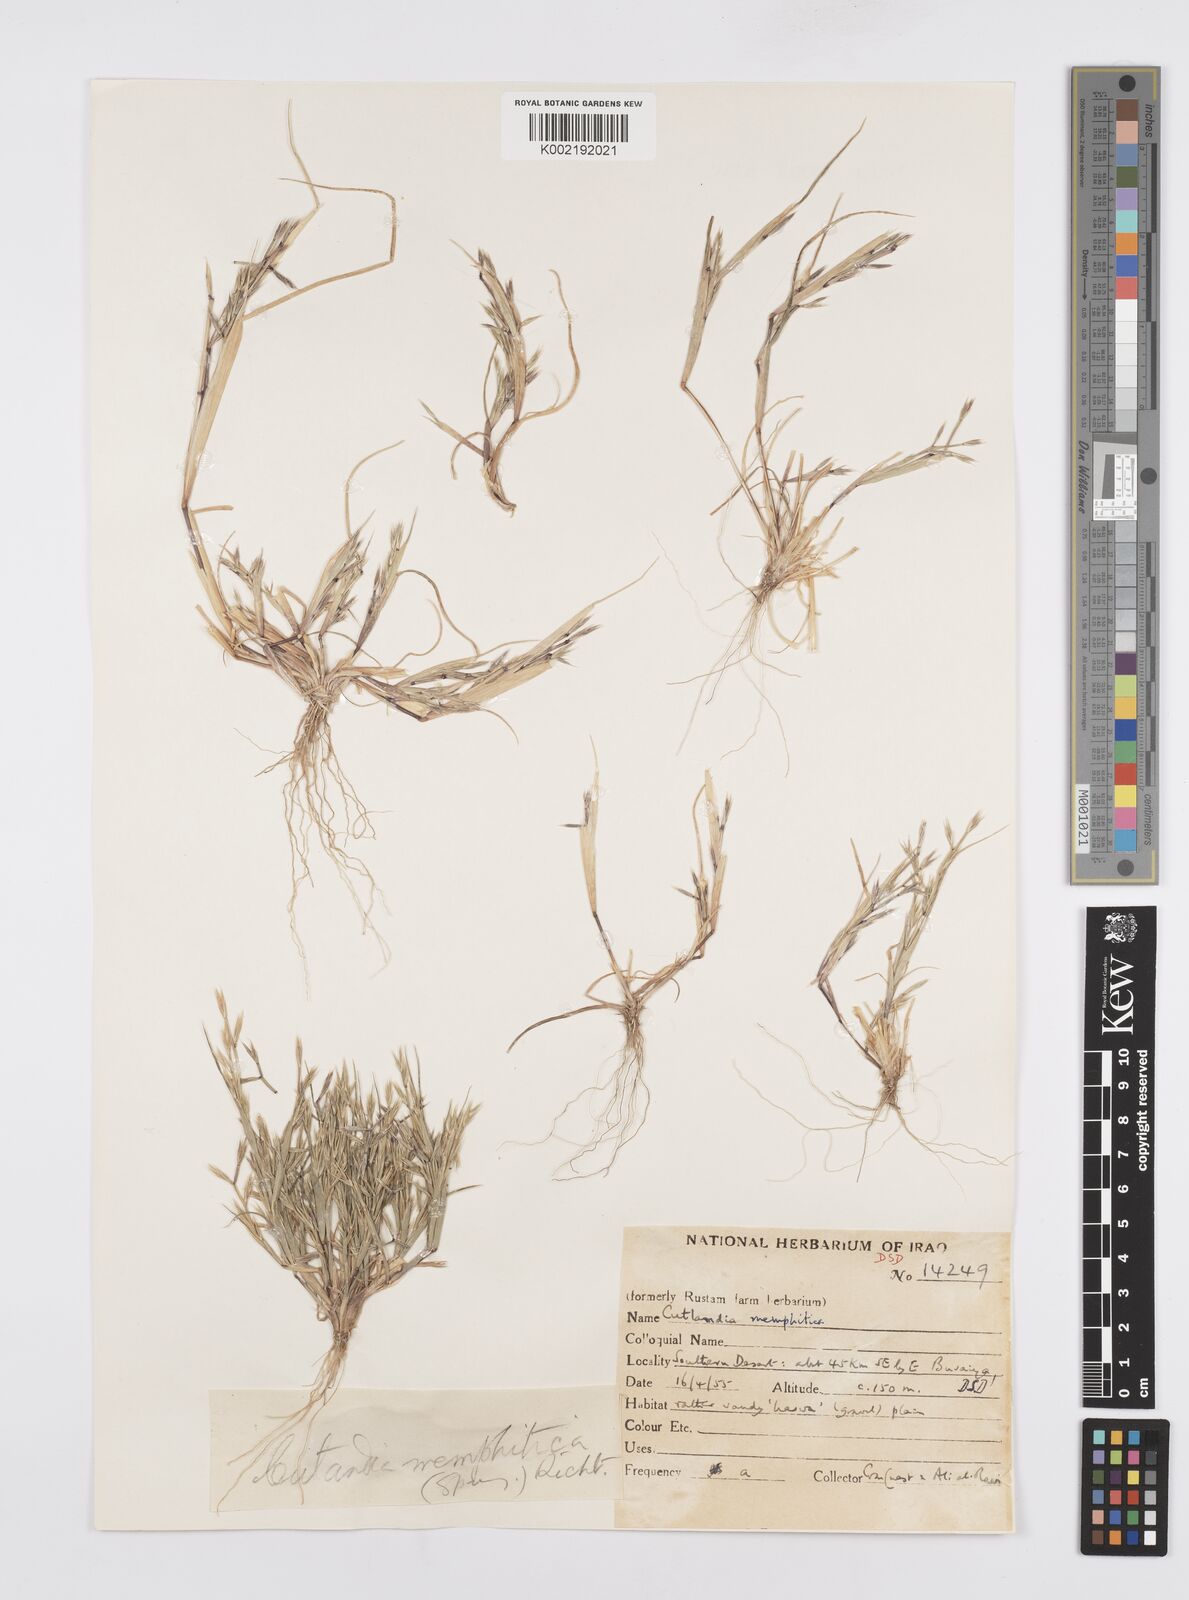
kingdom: Plantae
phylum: Tracheophyta
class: Liliopsida
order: Poales
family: Poaceae
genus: Cutandia
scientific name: Cutandia memphitica
